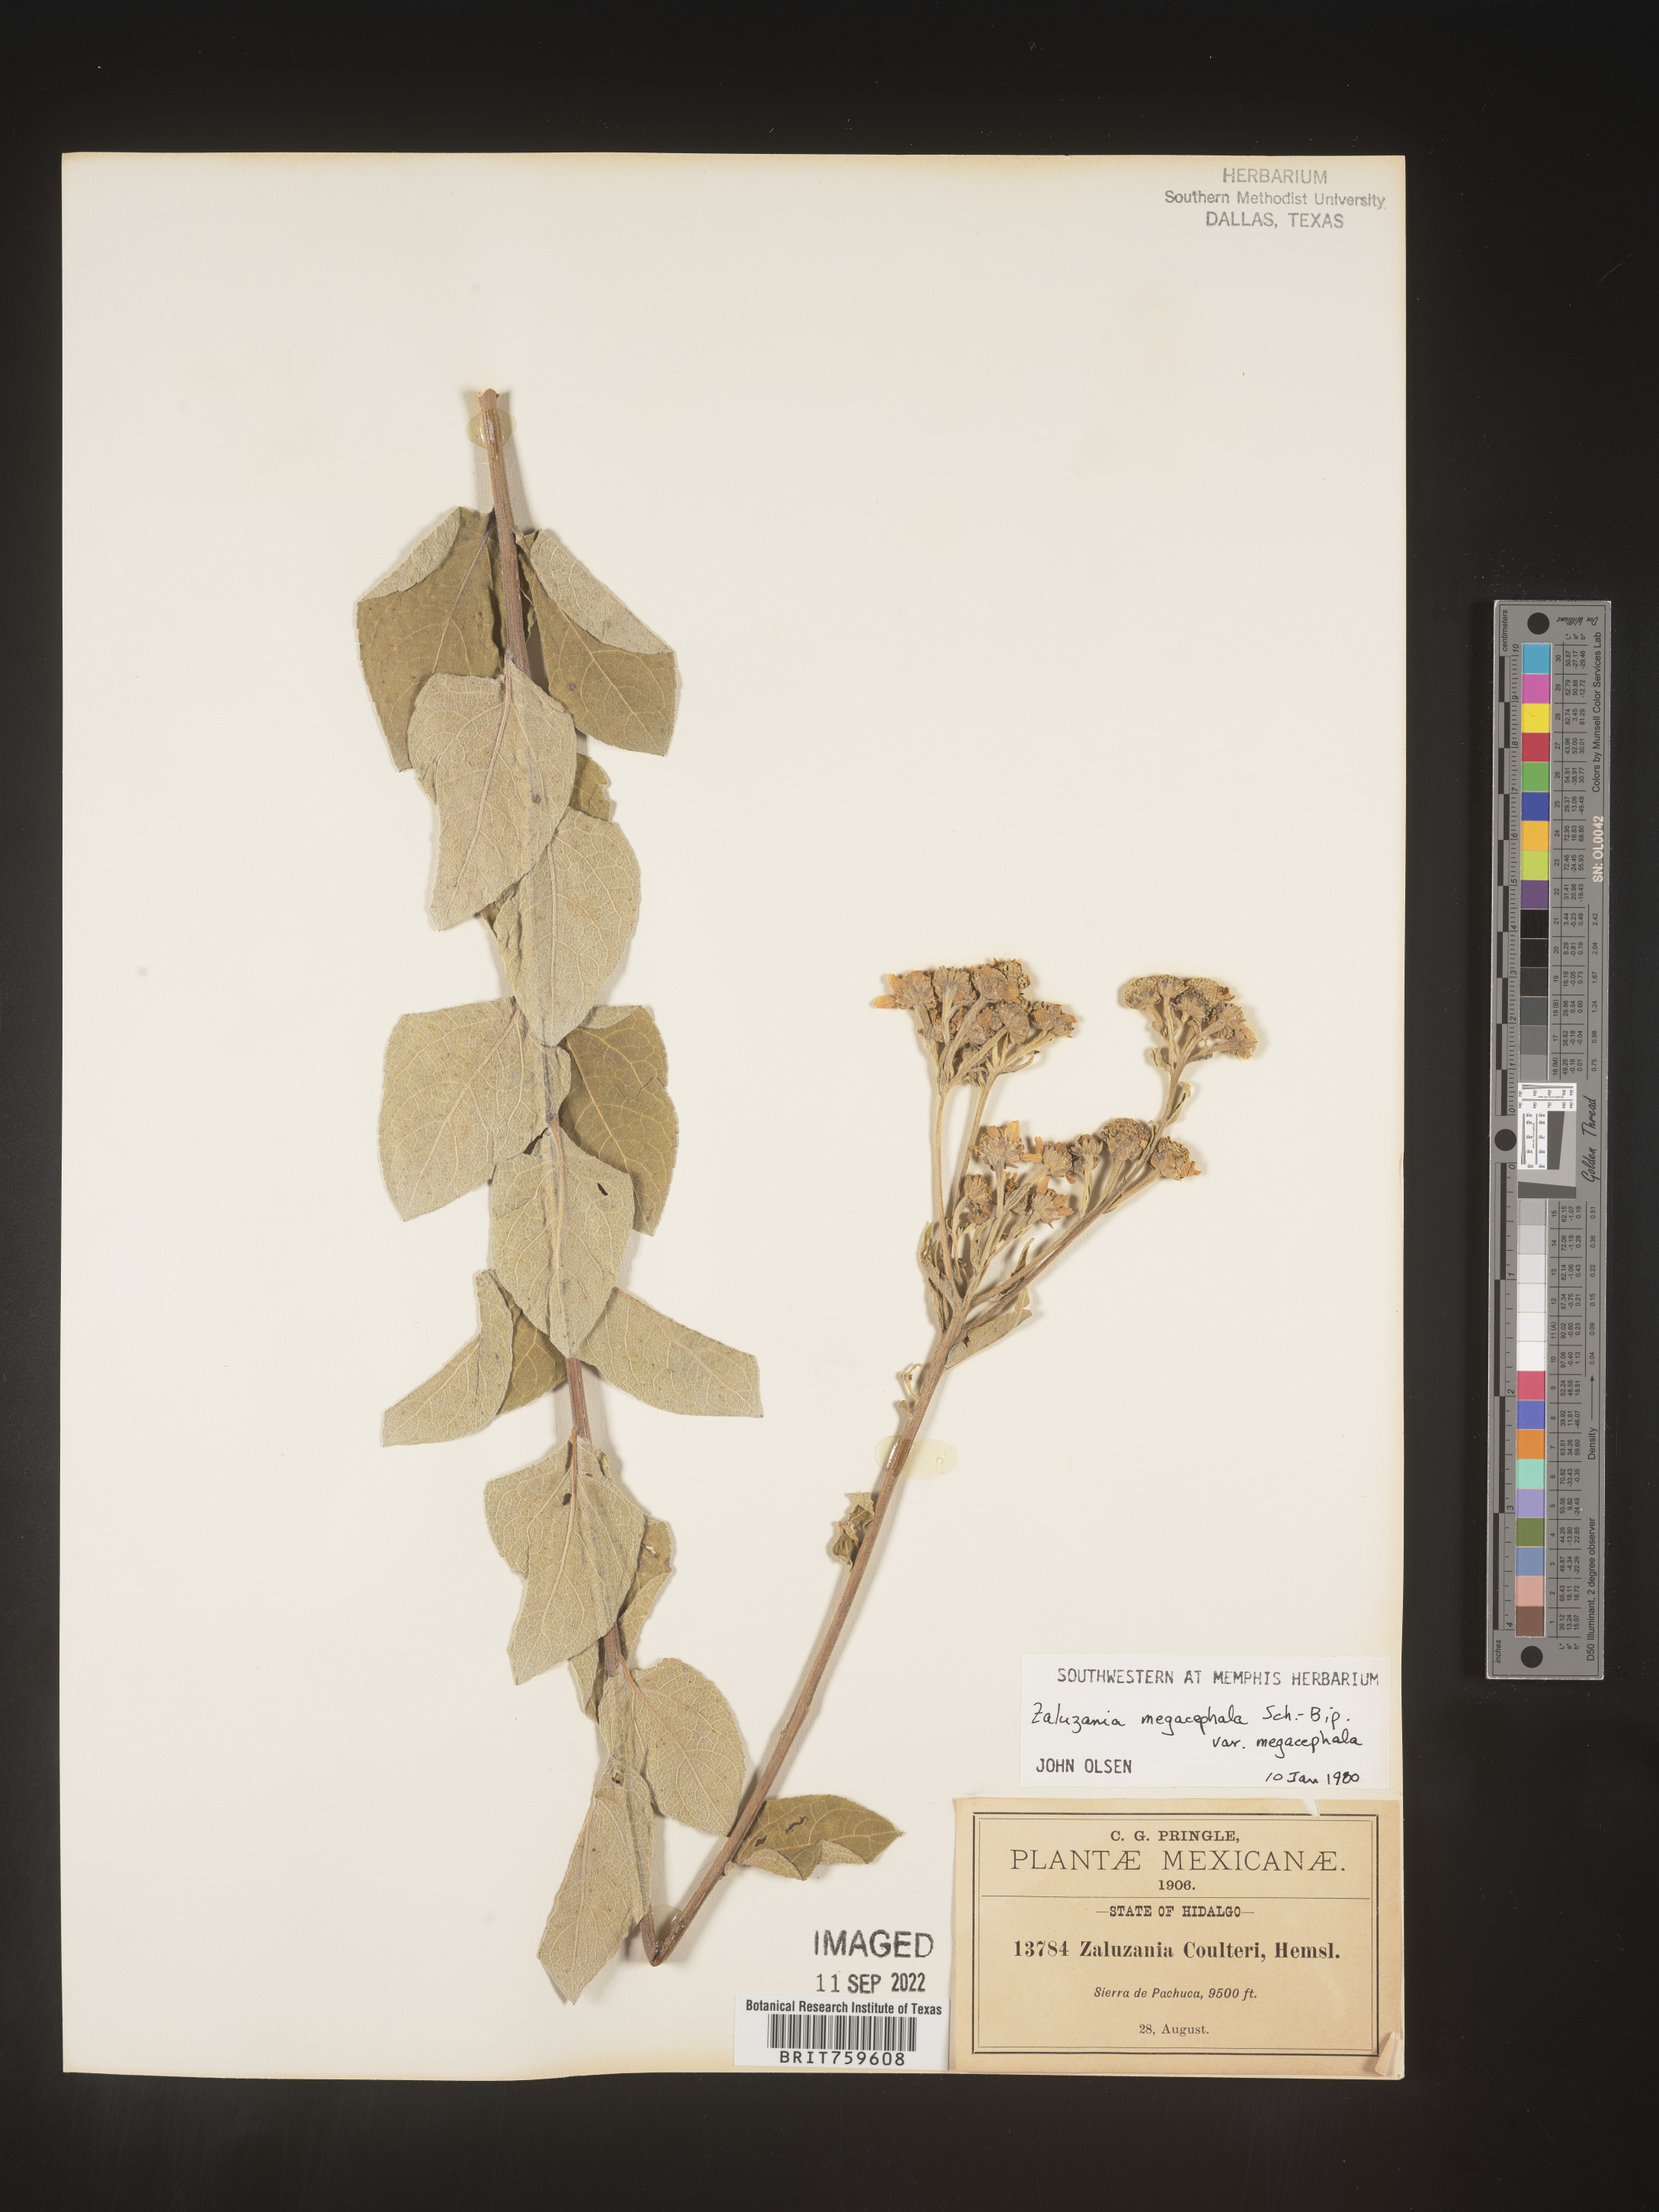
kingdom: Plantae
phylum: Tracheophyta
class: Magnoliopsida
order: Asterales
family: Asteraceae
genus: Zaluzania
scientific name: Zaluzania
